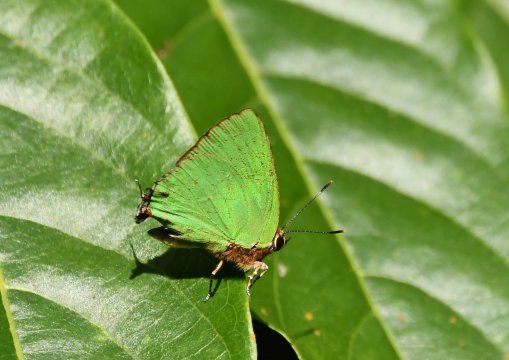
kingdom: Animalia
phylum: Arthropoda
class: Insecta
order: Lepidoptera
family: Lycaenidae
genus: Thecla
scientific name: Thecla herodotus
